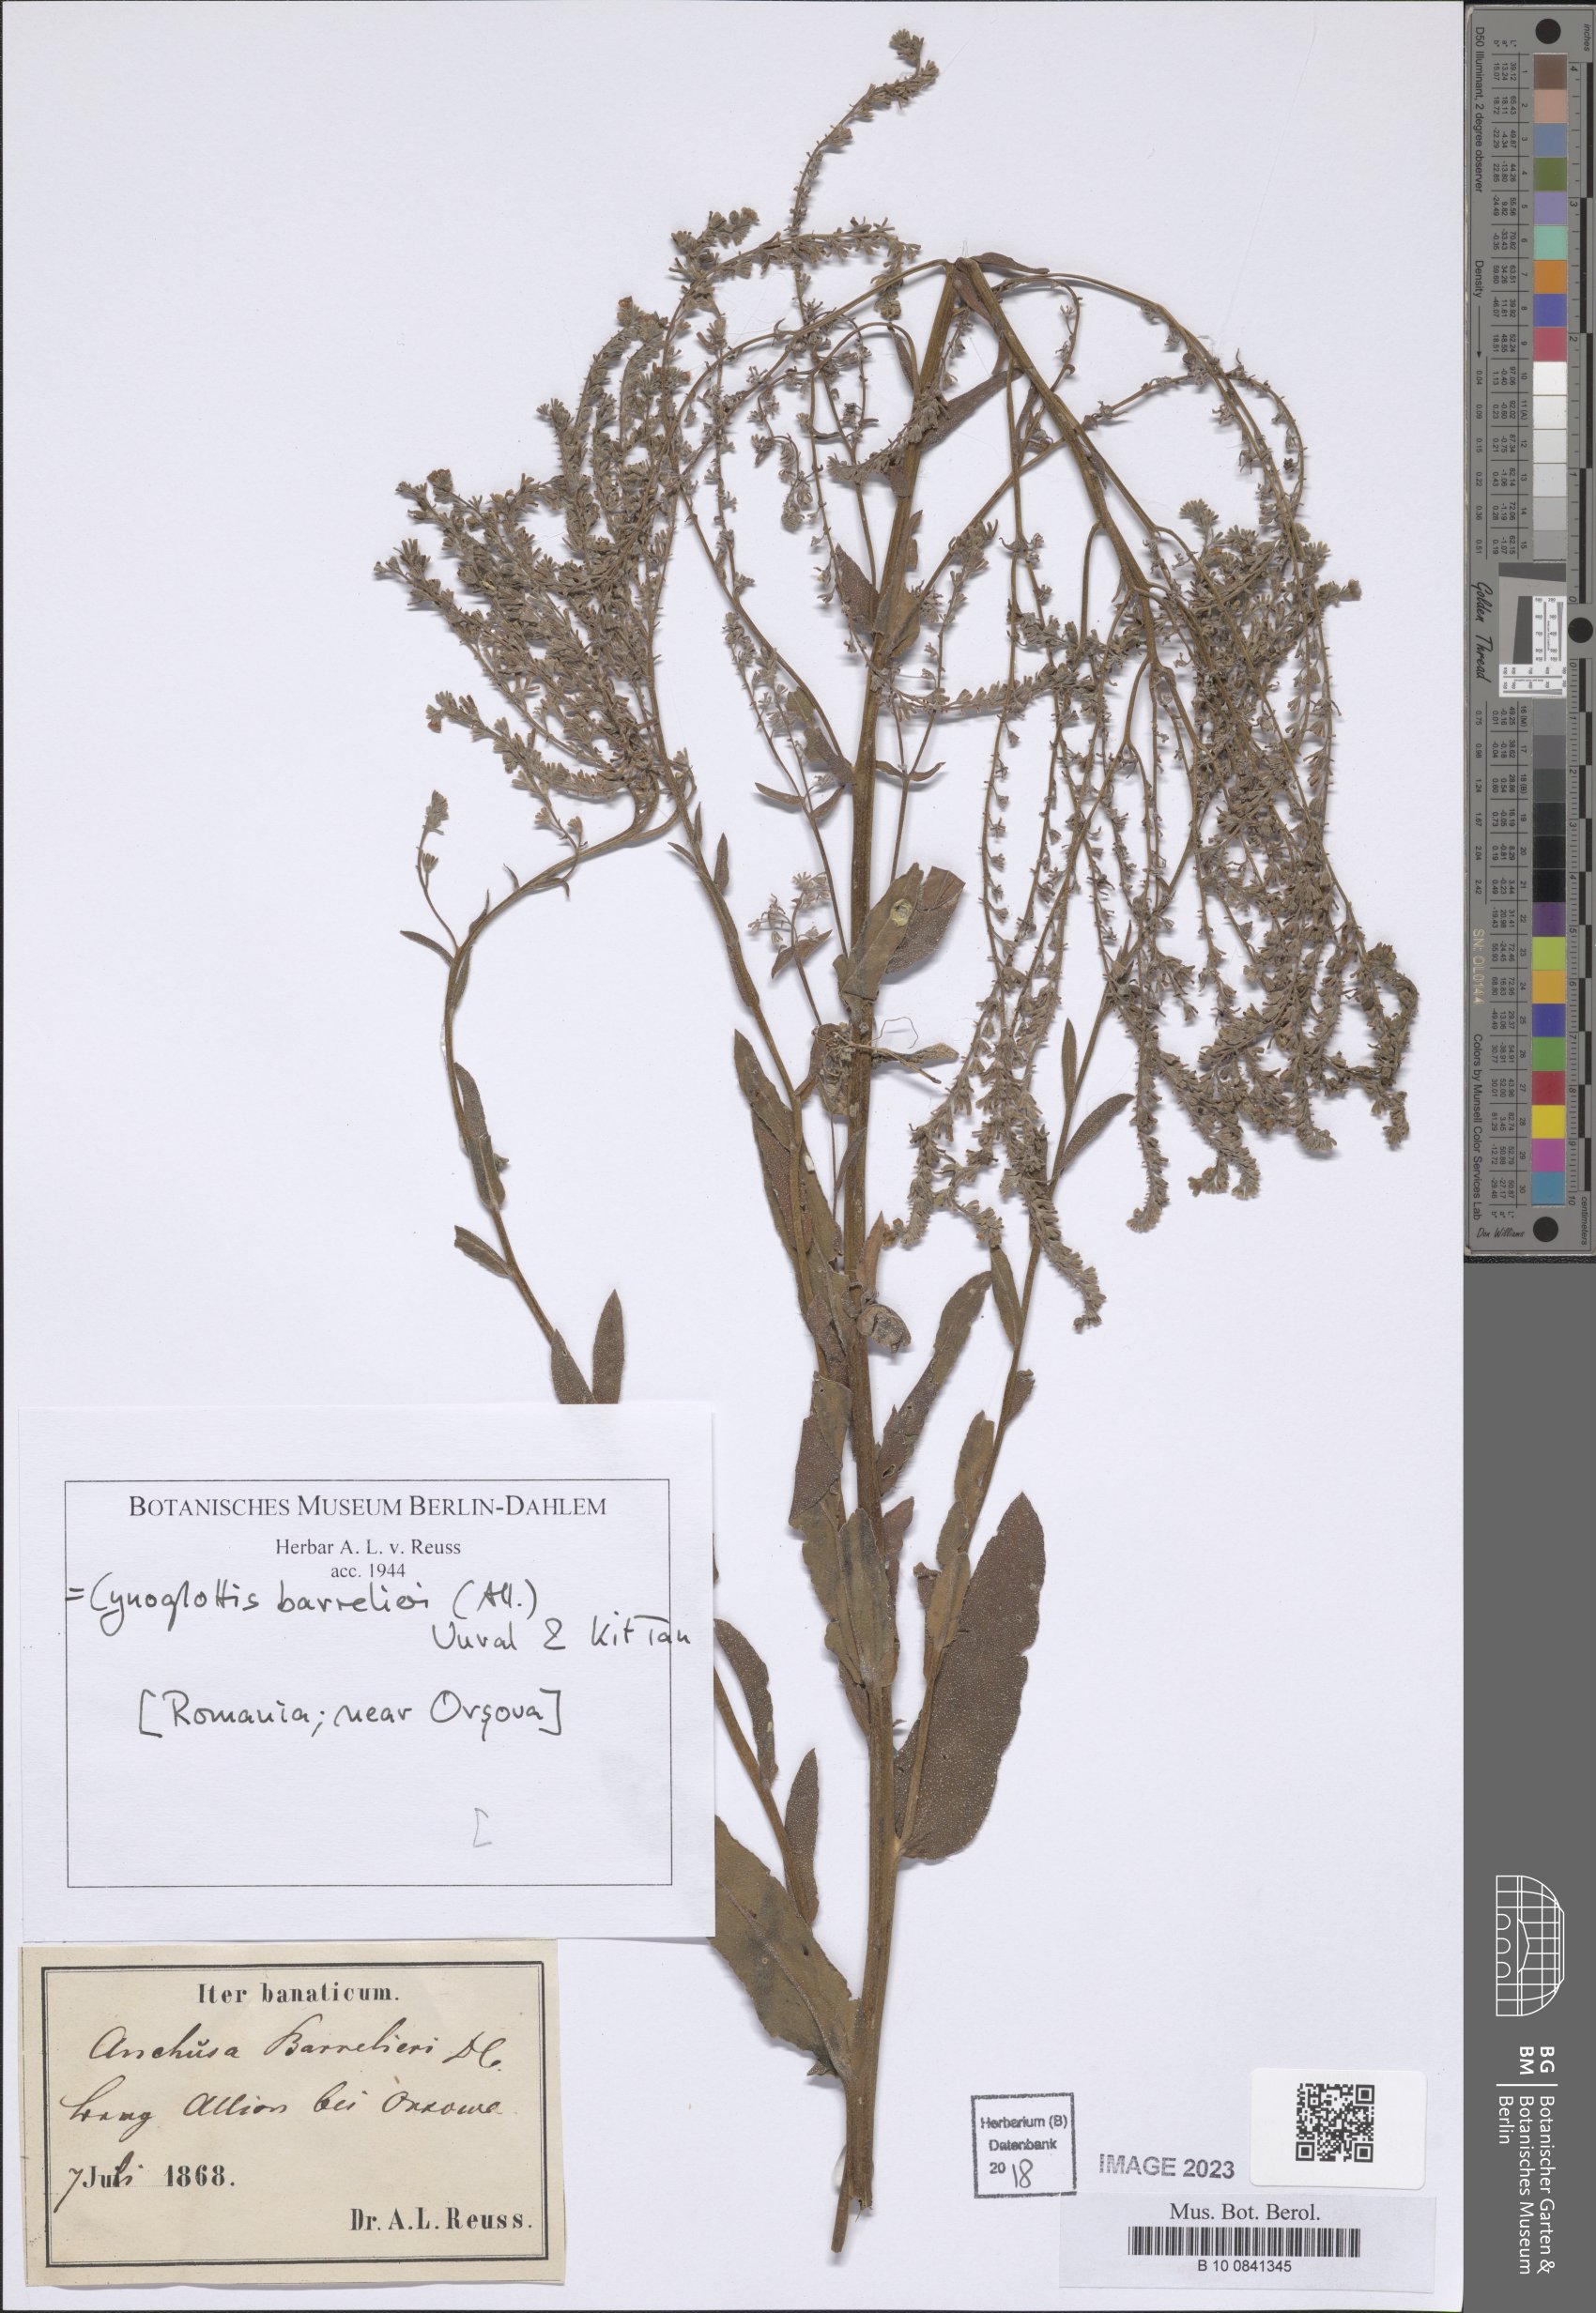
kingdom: Plantae
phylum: Tracheophyta
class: Magnoliopsida
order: Boraginales
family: Boraginaceae
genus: Cynoglottis
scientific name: Cynoglottis barrelieri
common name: False alkanet
